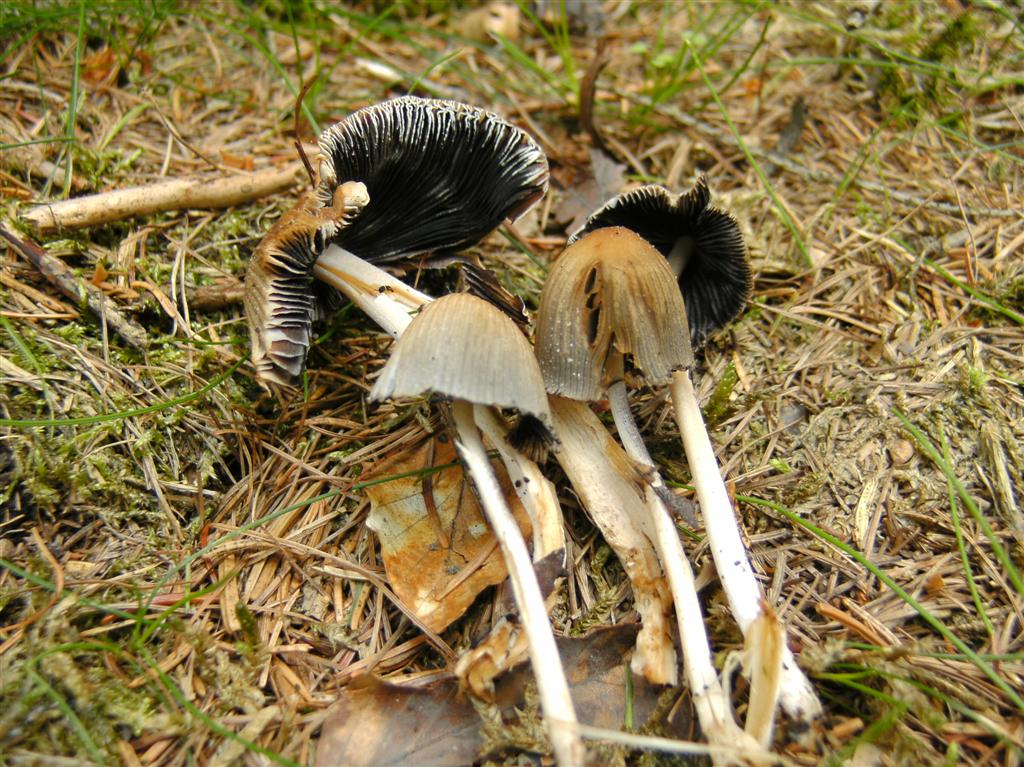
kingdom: Fungi
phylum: Basidiomycota
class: Agaricomycetes
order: Agaricales
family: Psathyrellaceae
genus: Coprinellus
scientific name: Coprinellus micaceus
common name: glimmer-blækhat
